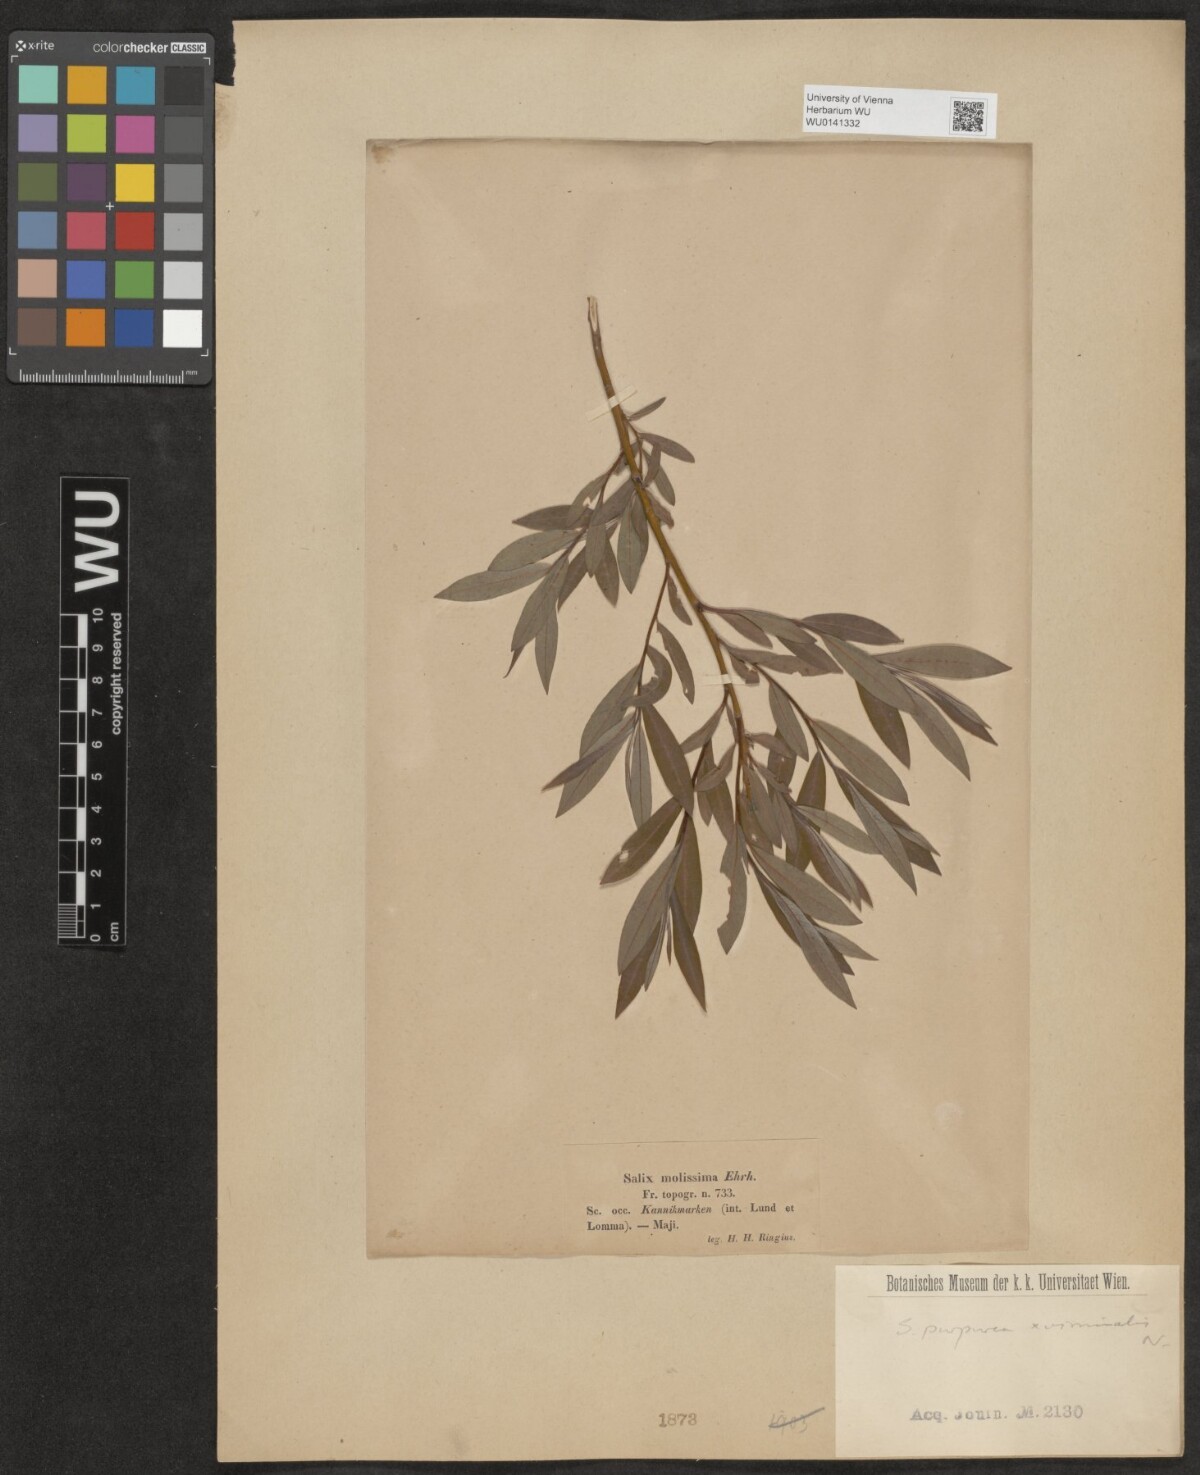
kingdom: Plantae
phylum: Tracheophyta
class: Magnoliopsida
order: Malpighiales
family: Salicaceae
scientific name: Salicaceae
